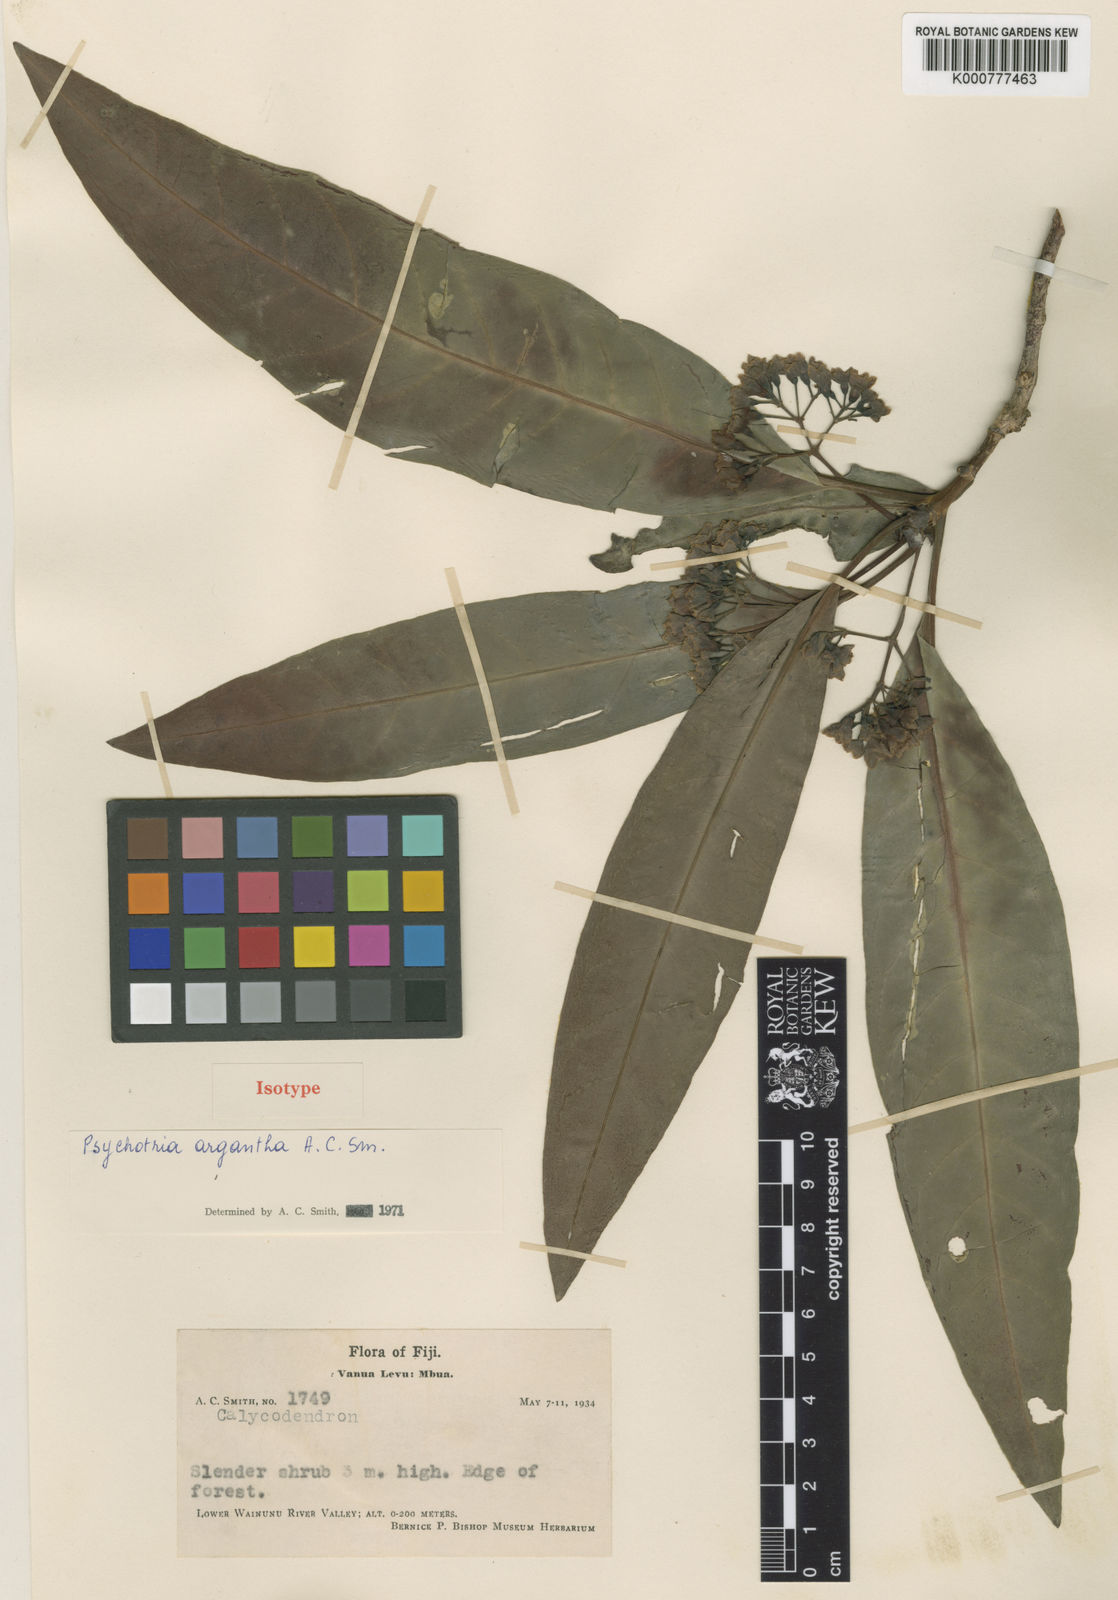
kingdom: Plantae
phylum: Tracheophyta
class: Magnoliopsida
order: Gentianales
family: Rubiaceae
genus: Psychotria
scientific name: Psychotria argantha
